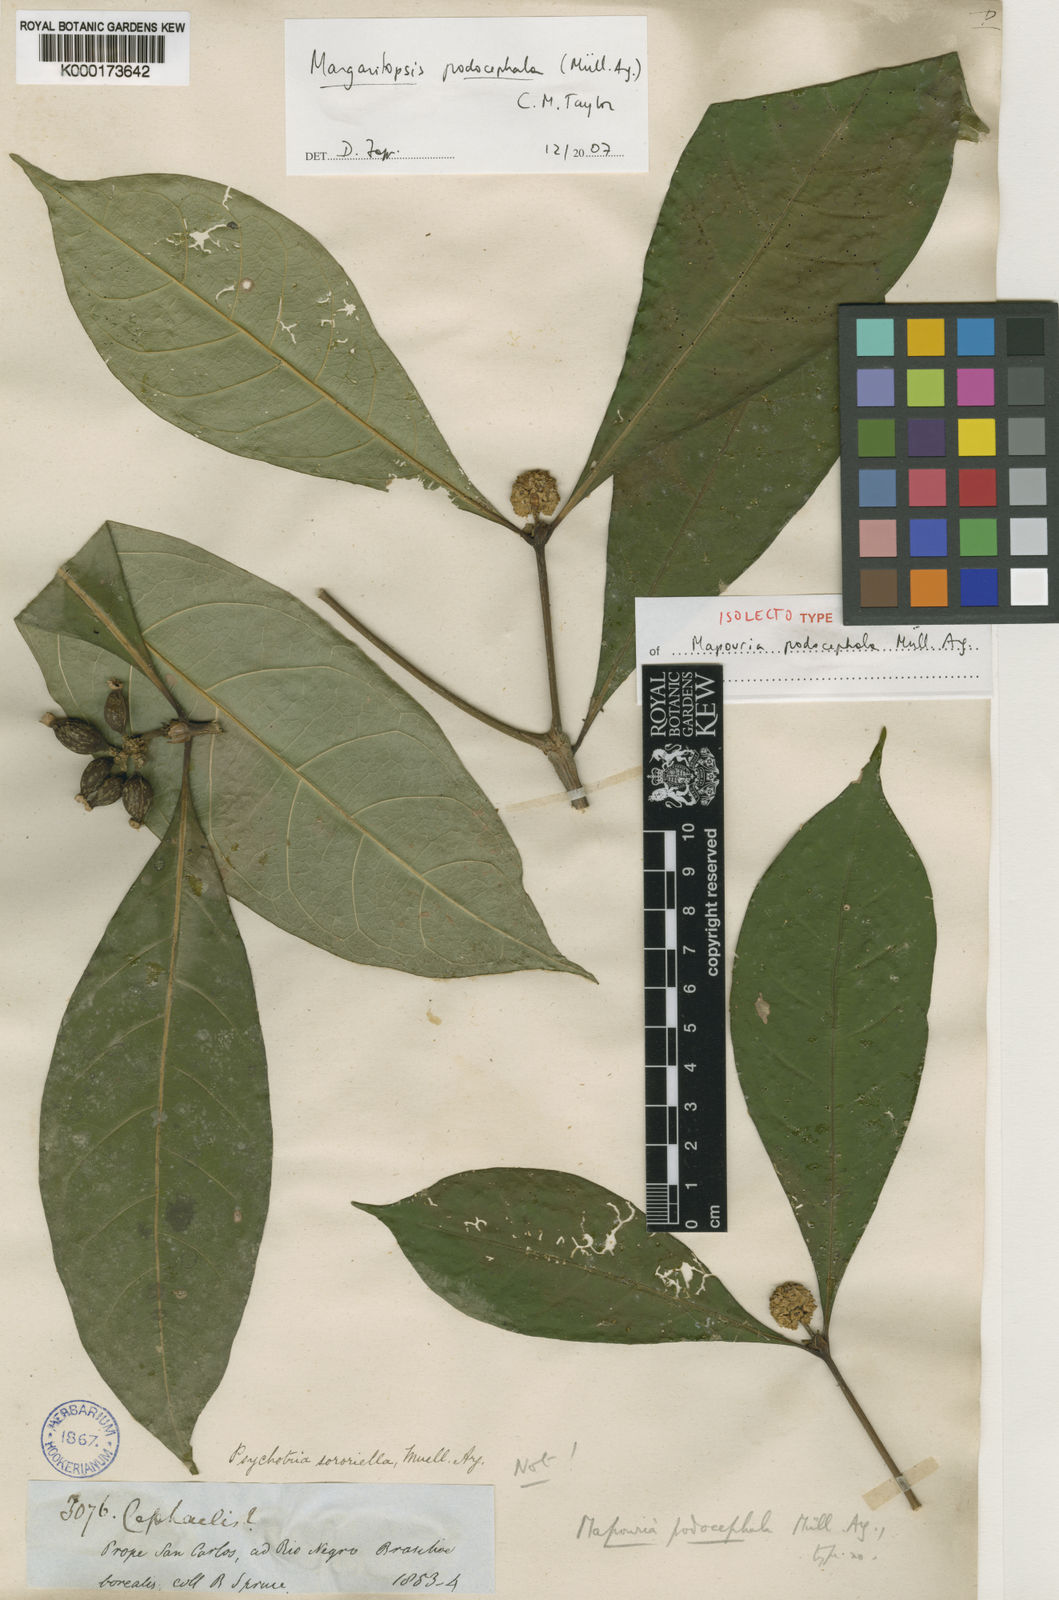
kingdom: Plantae
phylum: Tracheophyta
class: Magnoliopsida
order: Gentianales
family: Rubiaceae
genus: Eumachia
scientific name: Eumachia
